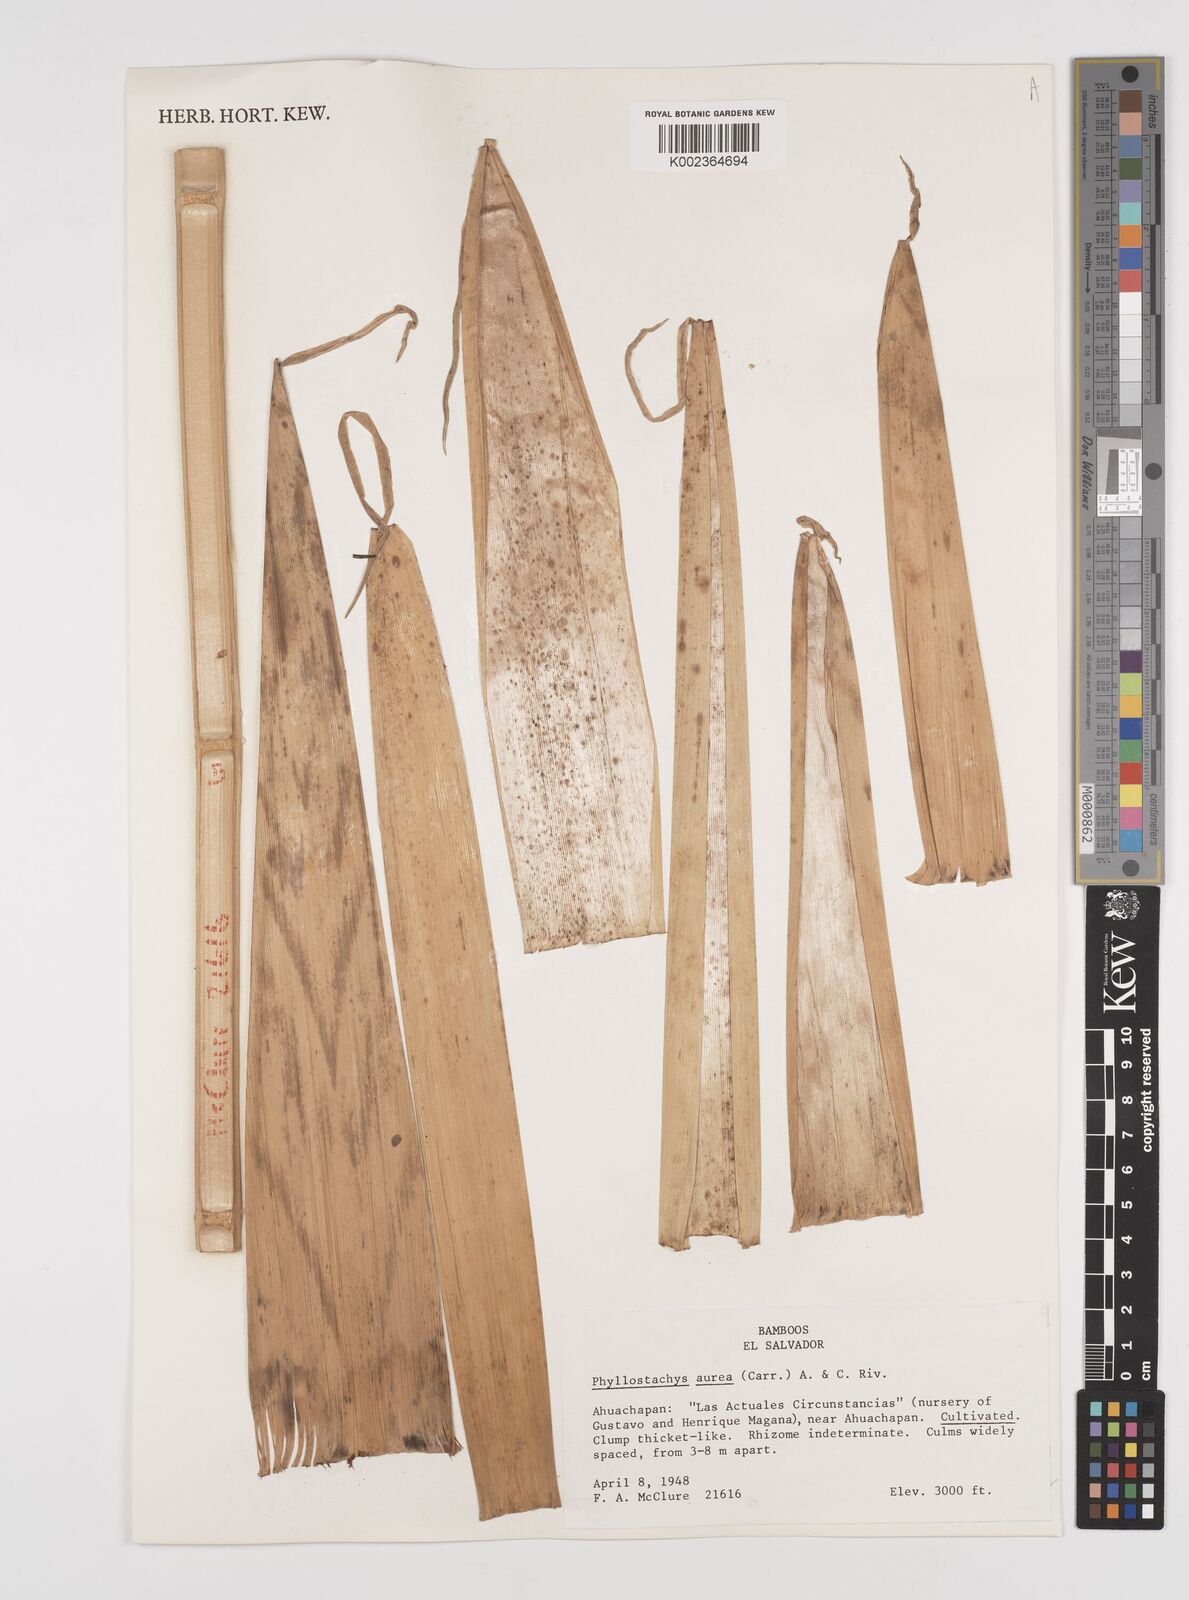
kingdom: Plantae
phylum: Tracheophyta
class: Liliopsida
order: Poales
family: Poaceae
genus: Phyllostachys
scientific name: Phyllostachys aurea
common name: Golden bamboo
